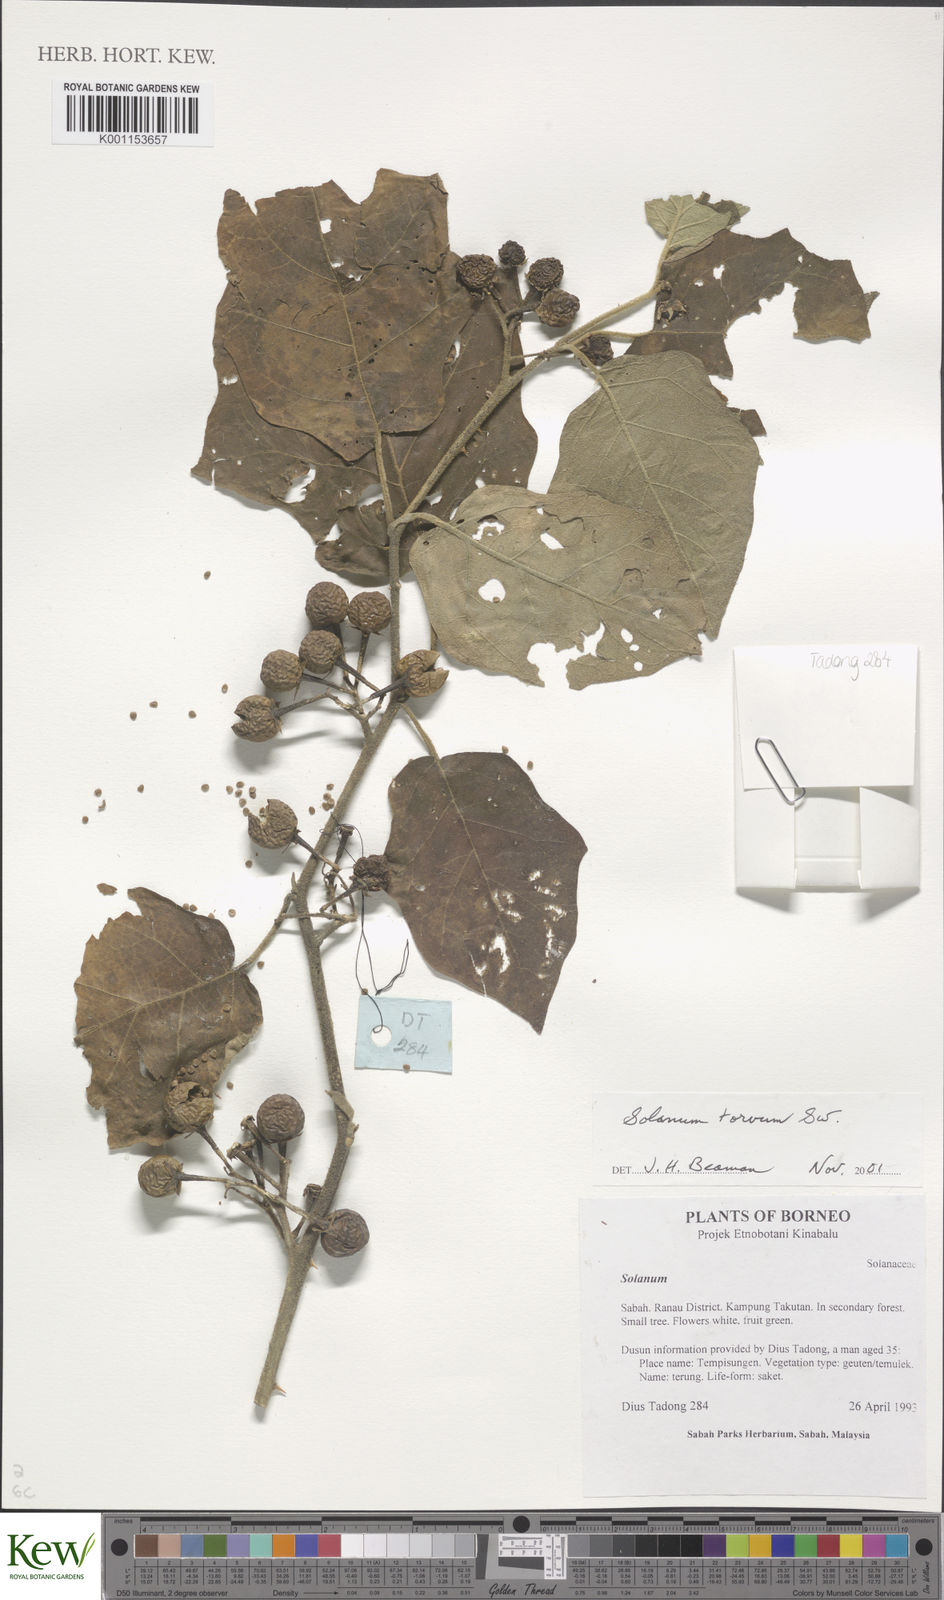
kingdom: Plantae
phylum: Tracheophyta
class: Magnoliopsida
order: Solanales
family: Solanaceae
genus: Solanum
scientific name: Solanum torvum
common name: Turkey berry
